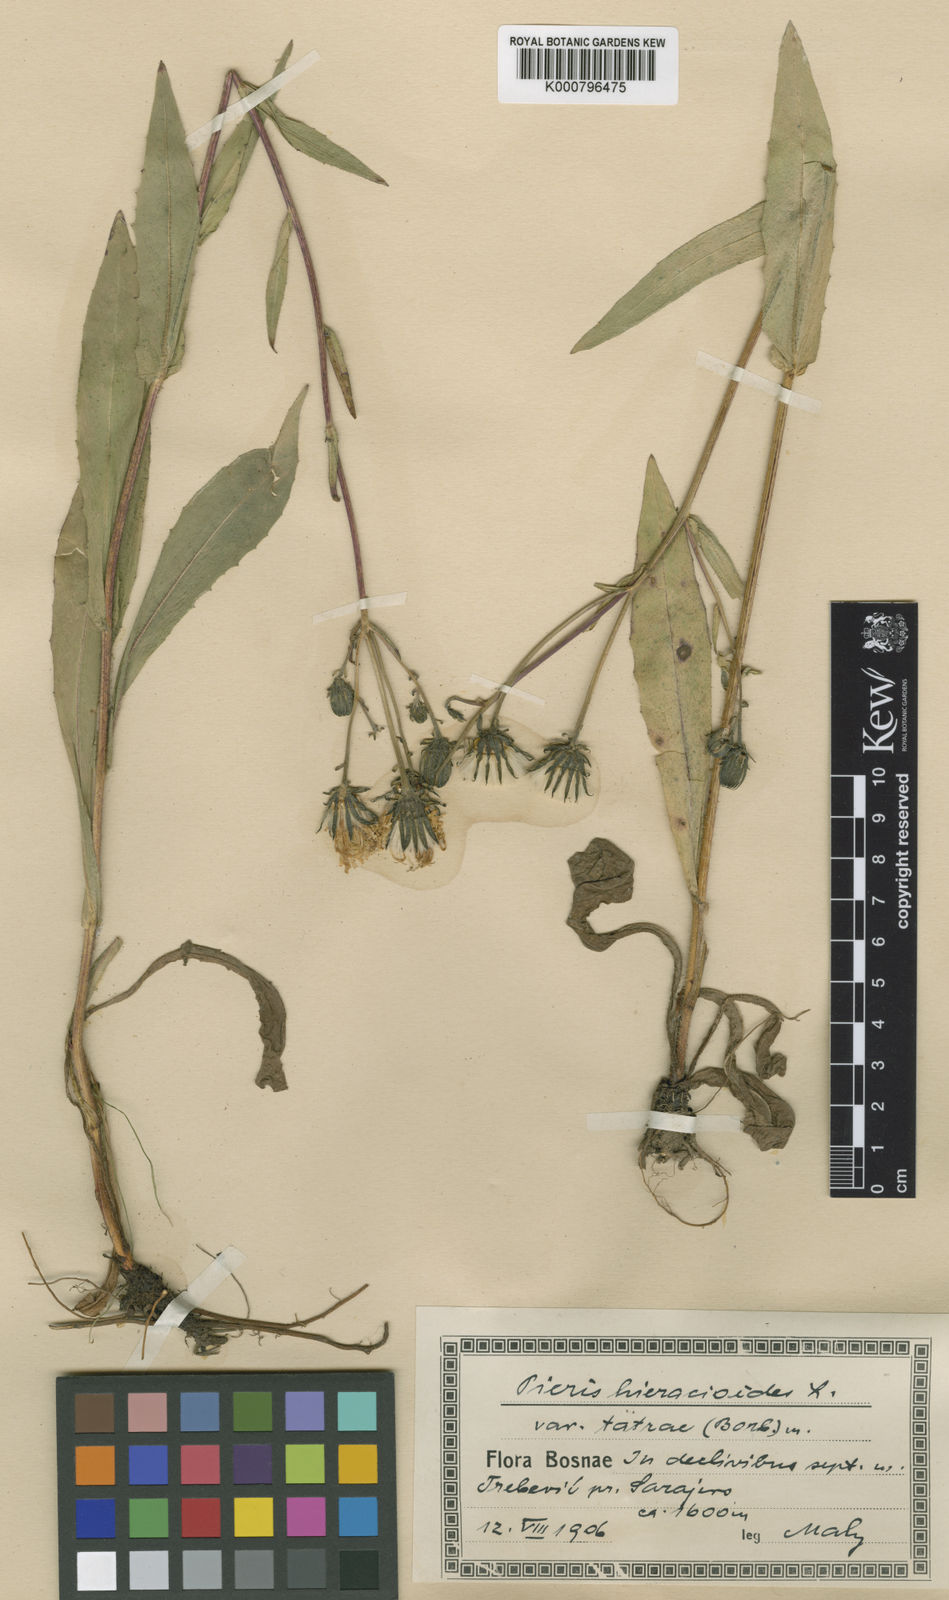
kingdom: Plantae
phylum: Tracheophyta
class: Magnoliopsida
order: Asterales
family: Asteraceae
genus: Picris
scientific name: Picris hieracioides
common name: Hawkweed oxtongue
